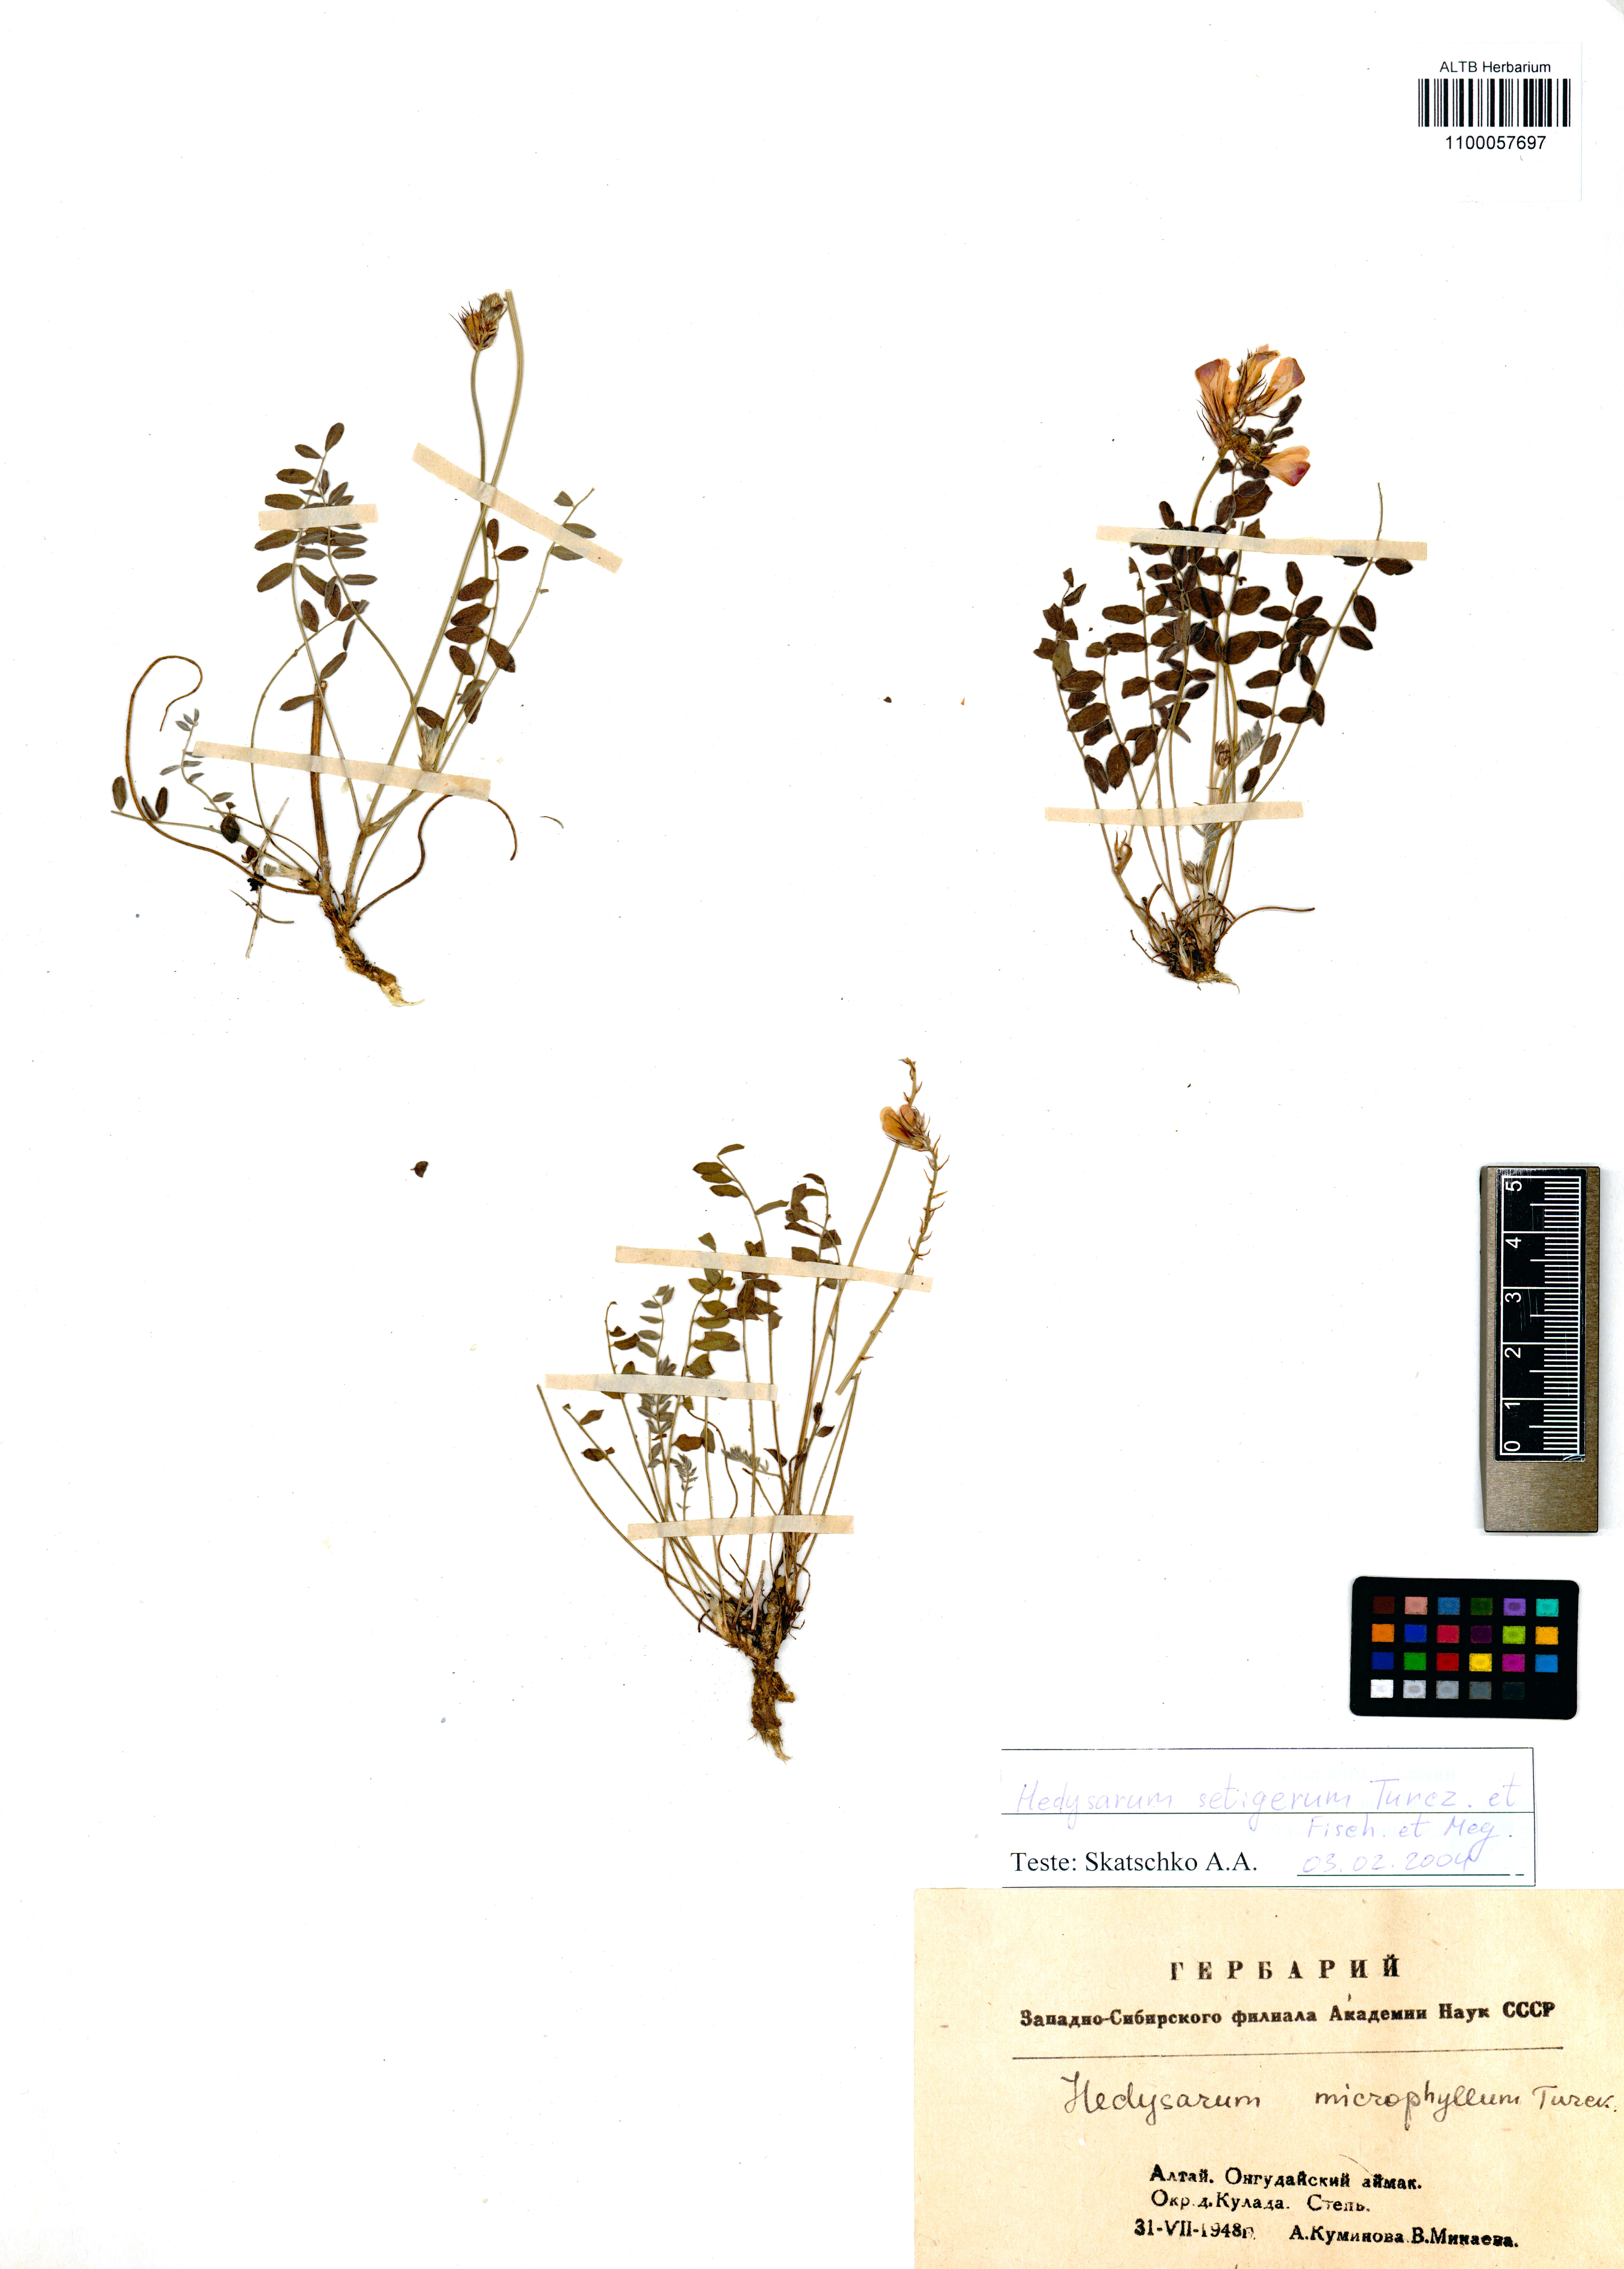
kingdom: Plantae
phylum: Tracheophyta
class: Magnoliopsida
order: Fabales
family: Fabaceae
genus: Hedysarum
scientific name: Hedysarum setigerum
